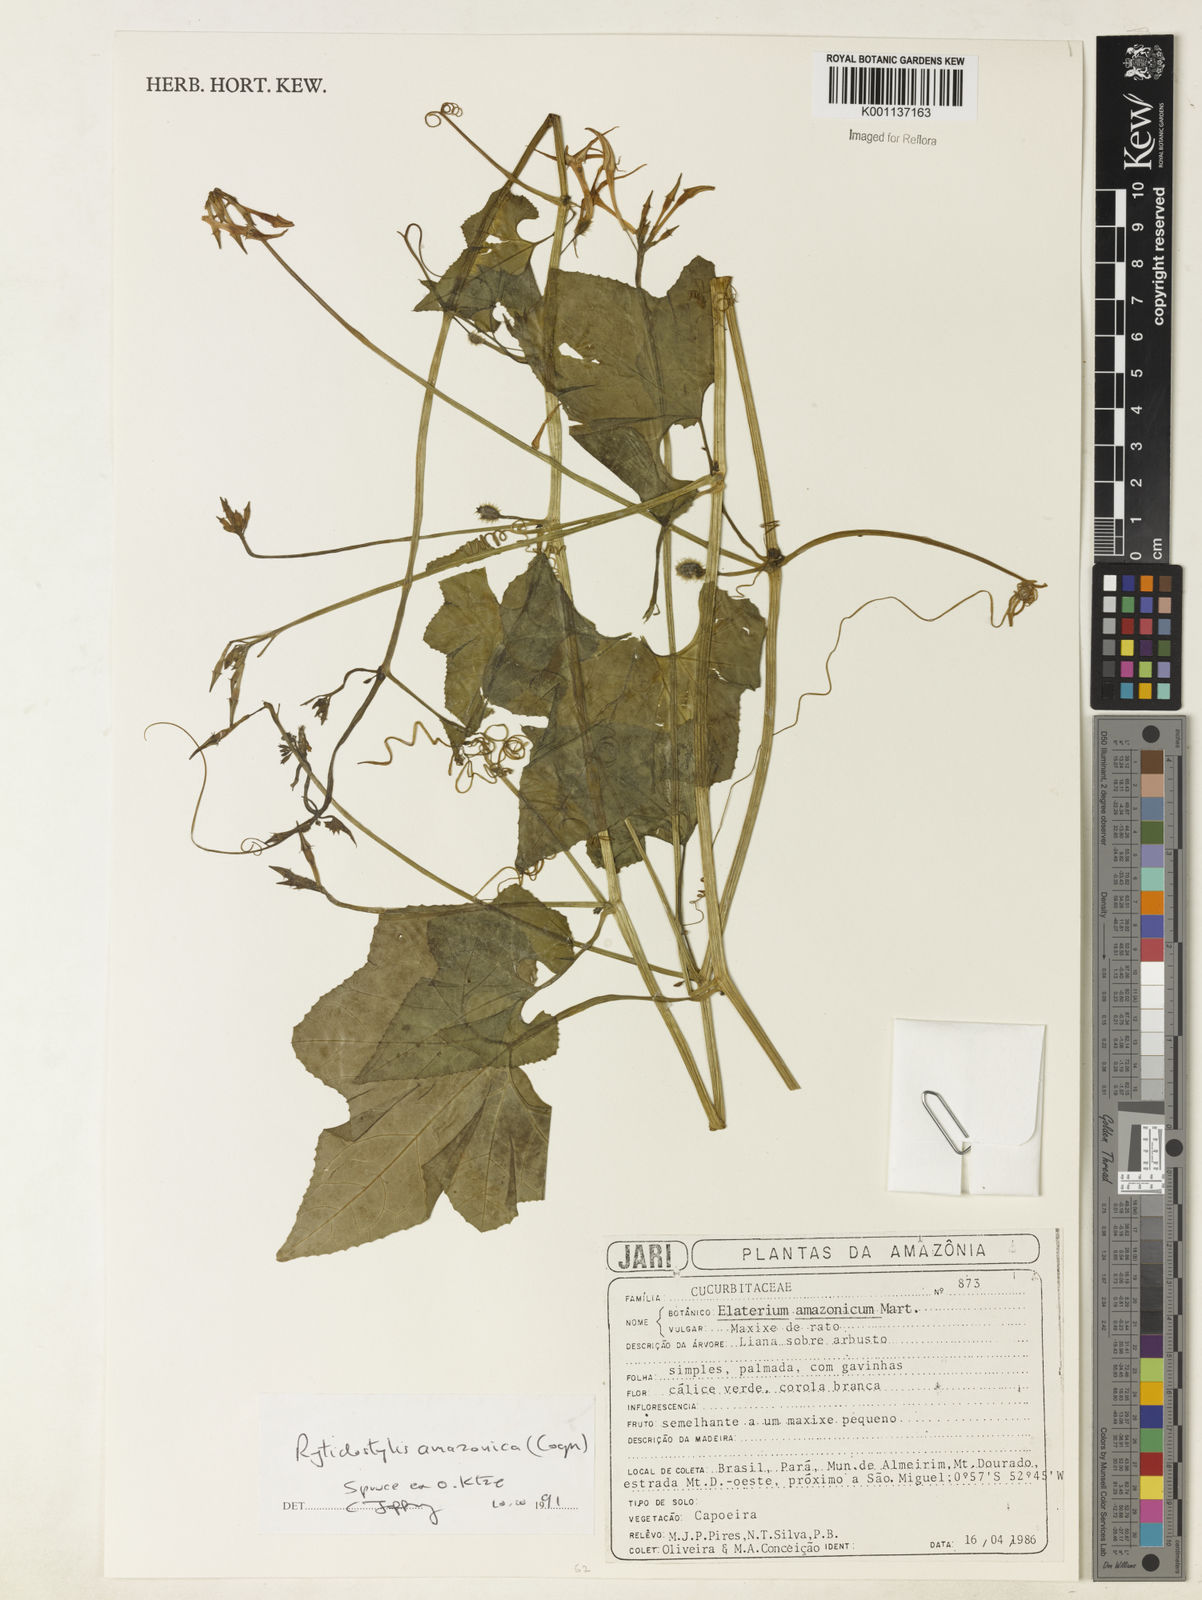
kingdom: Plantae
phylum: Tracheophyta
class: Magnoliopsida
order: Cucurbitales
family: Cucurbitaceae
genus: Cyclanthera
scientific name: Cyclanthera carthagenensis
